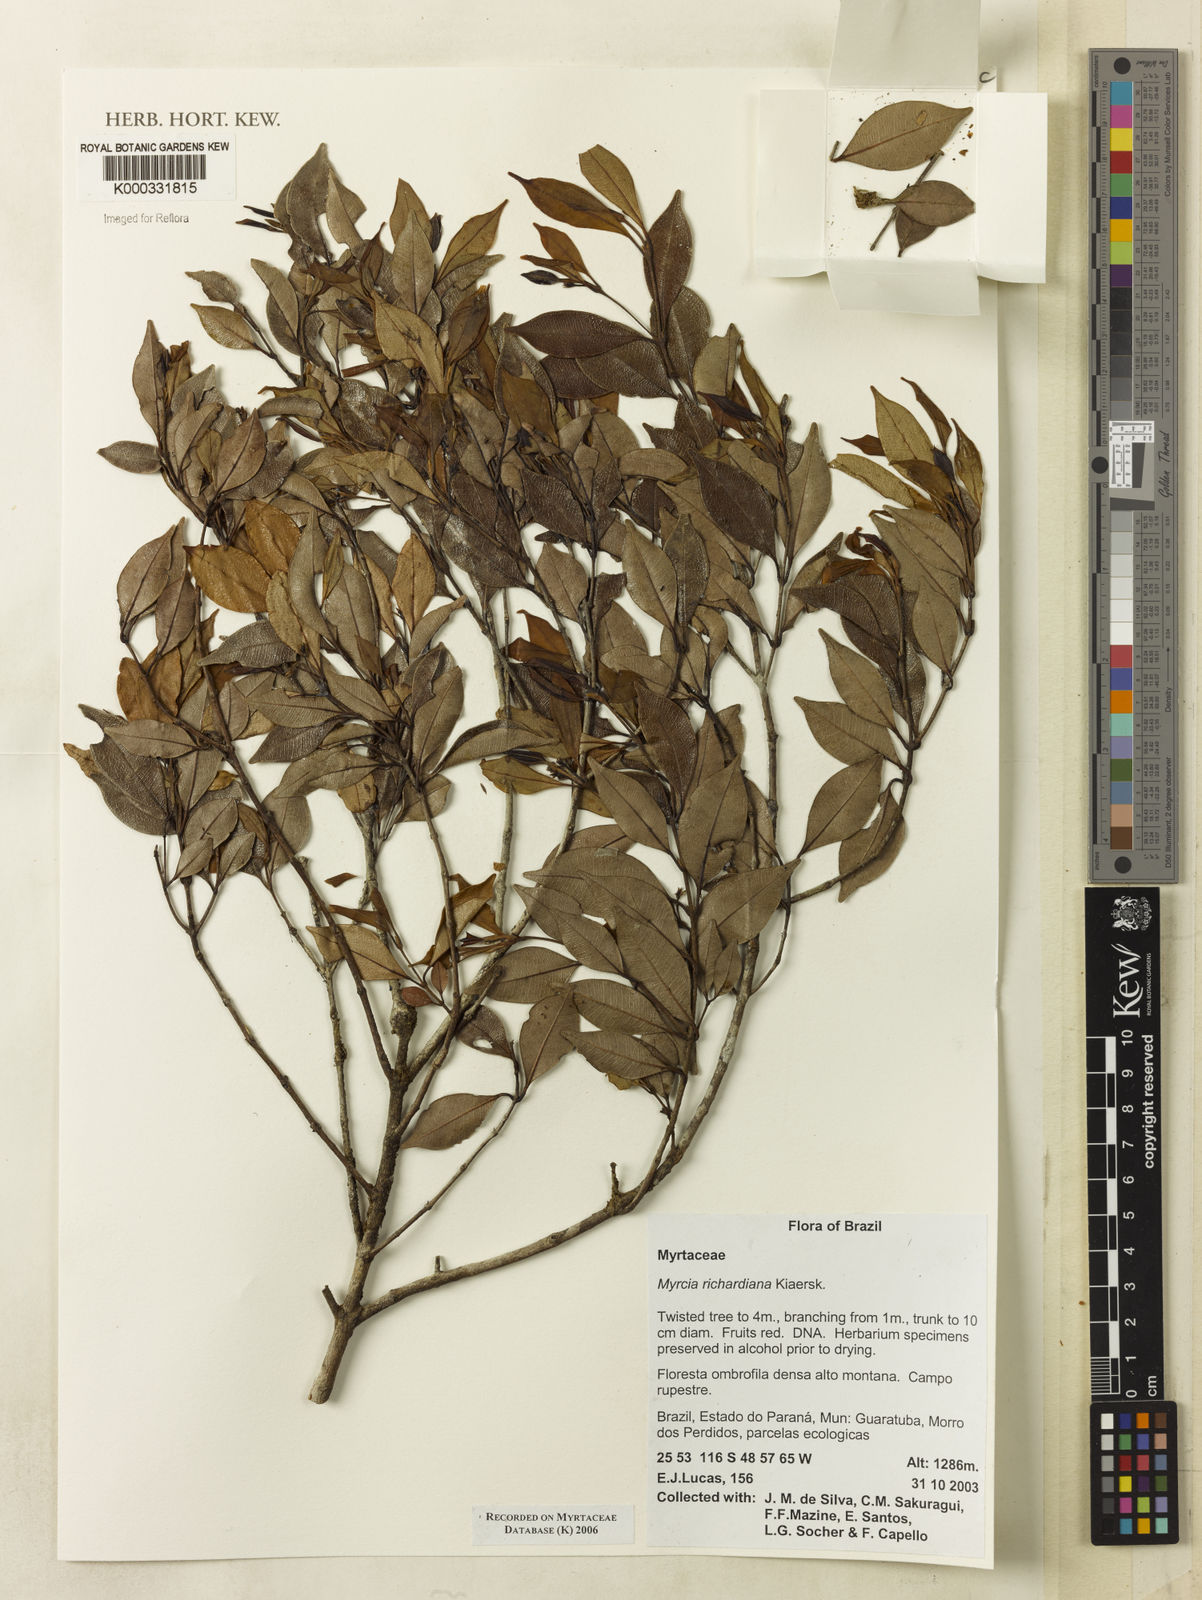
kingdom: Plantae
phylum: Tracheophyta
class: Magnoliopsida
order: Myrtales
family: Myrtaceae
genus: Myrcia
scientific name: Myrcia richardiana
